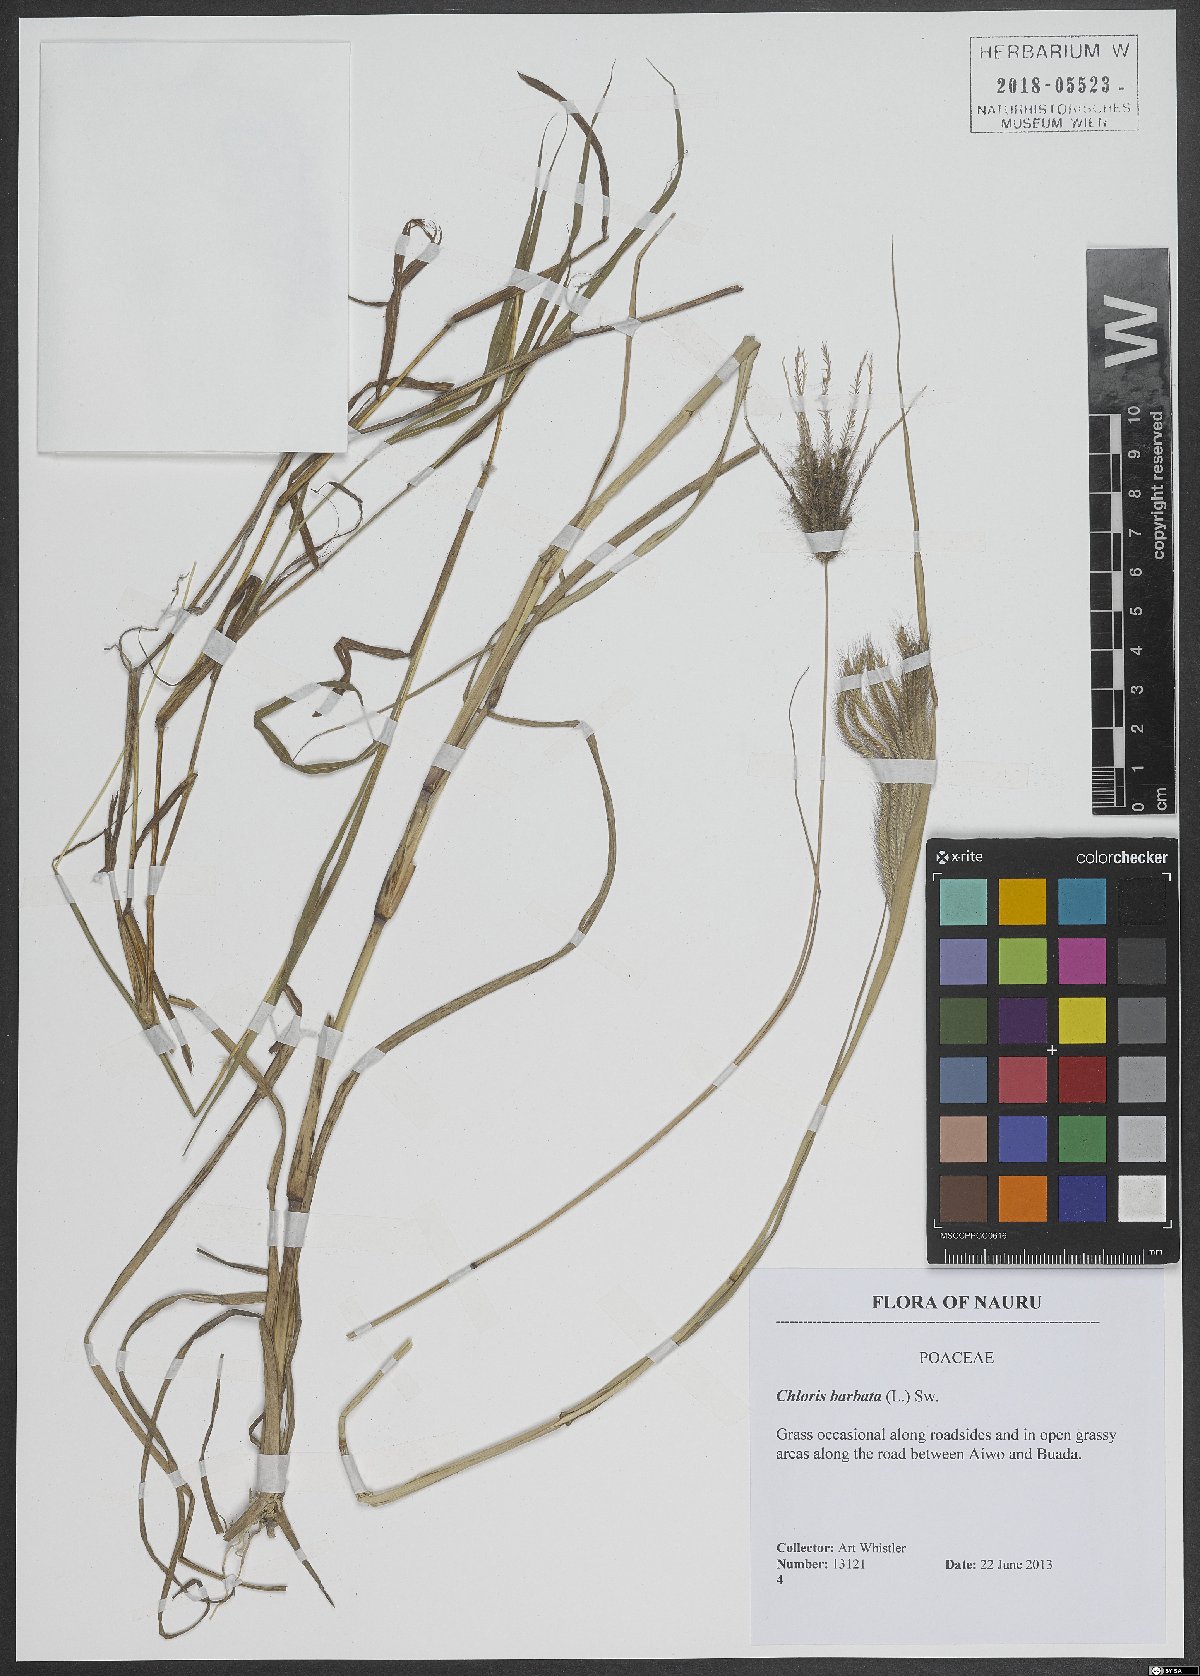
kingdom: Plantae
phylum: Tracheophyta
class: Liliopsida
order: Poales
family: Poaceae
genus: Chloris
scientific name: Chloris barbata
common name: Swollen fingergrass
